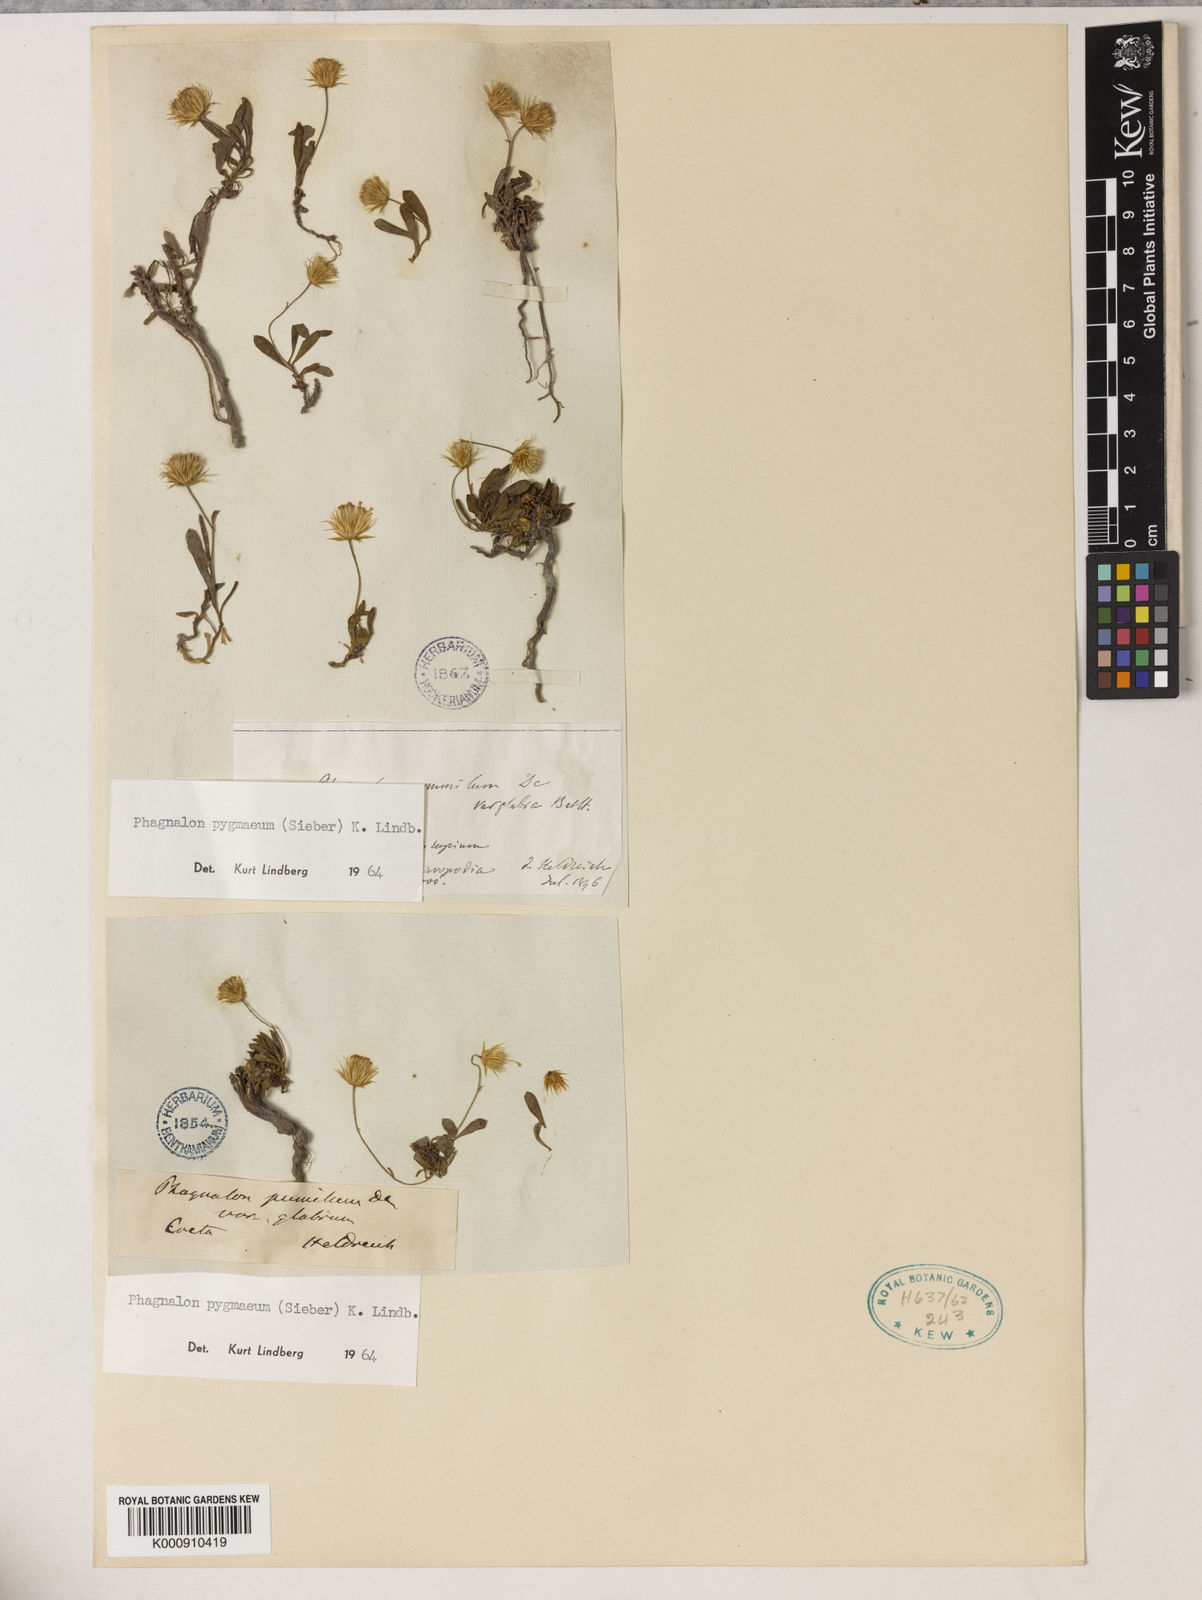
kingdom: Plantae
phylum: Tracheophyta
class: Magnoliopsida
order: Asterales
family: Asteraceae
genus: Phagnalon
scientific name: Phagnalon
